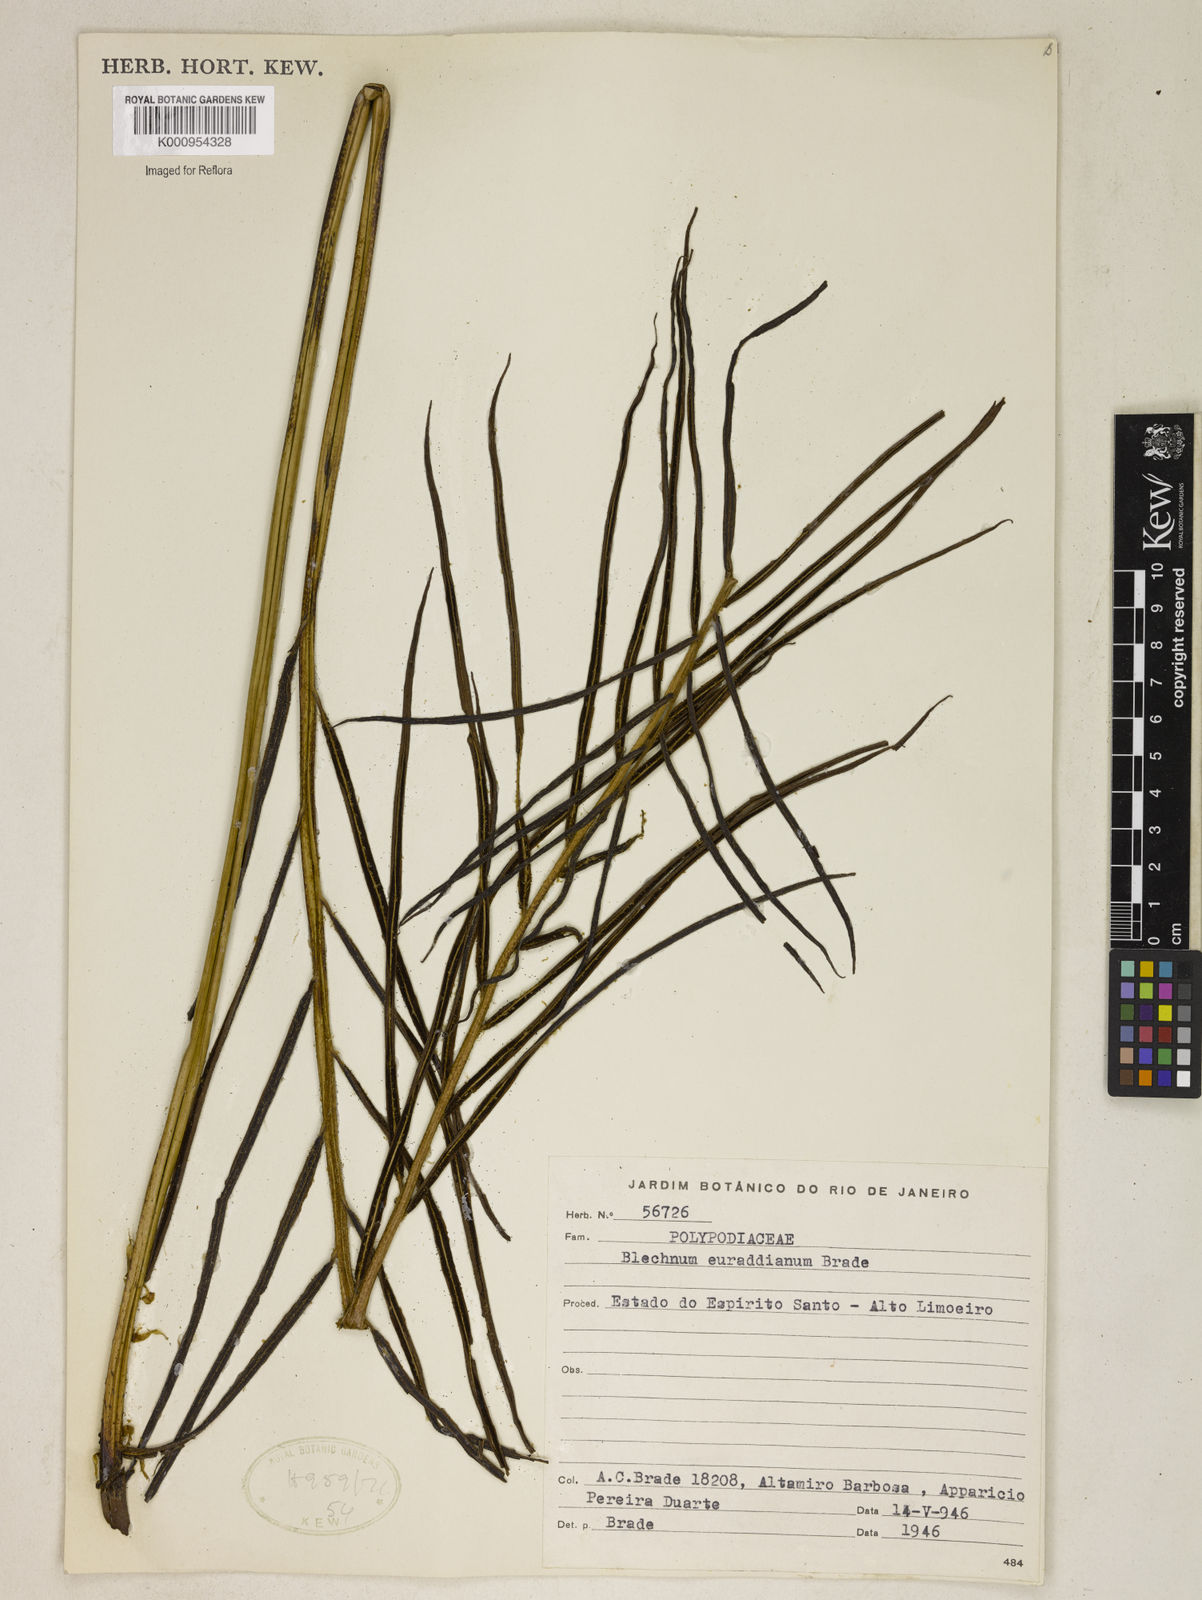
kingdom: Plantae
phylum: Tracheophyta
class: Polypodiopsida
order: Polypodiales
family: Blechnaceae
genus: Parablechnum
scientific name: Parablechnum cordatum
